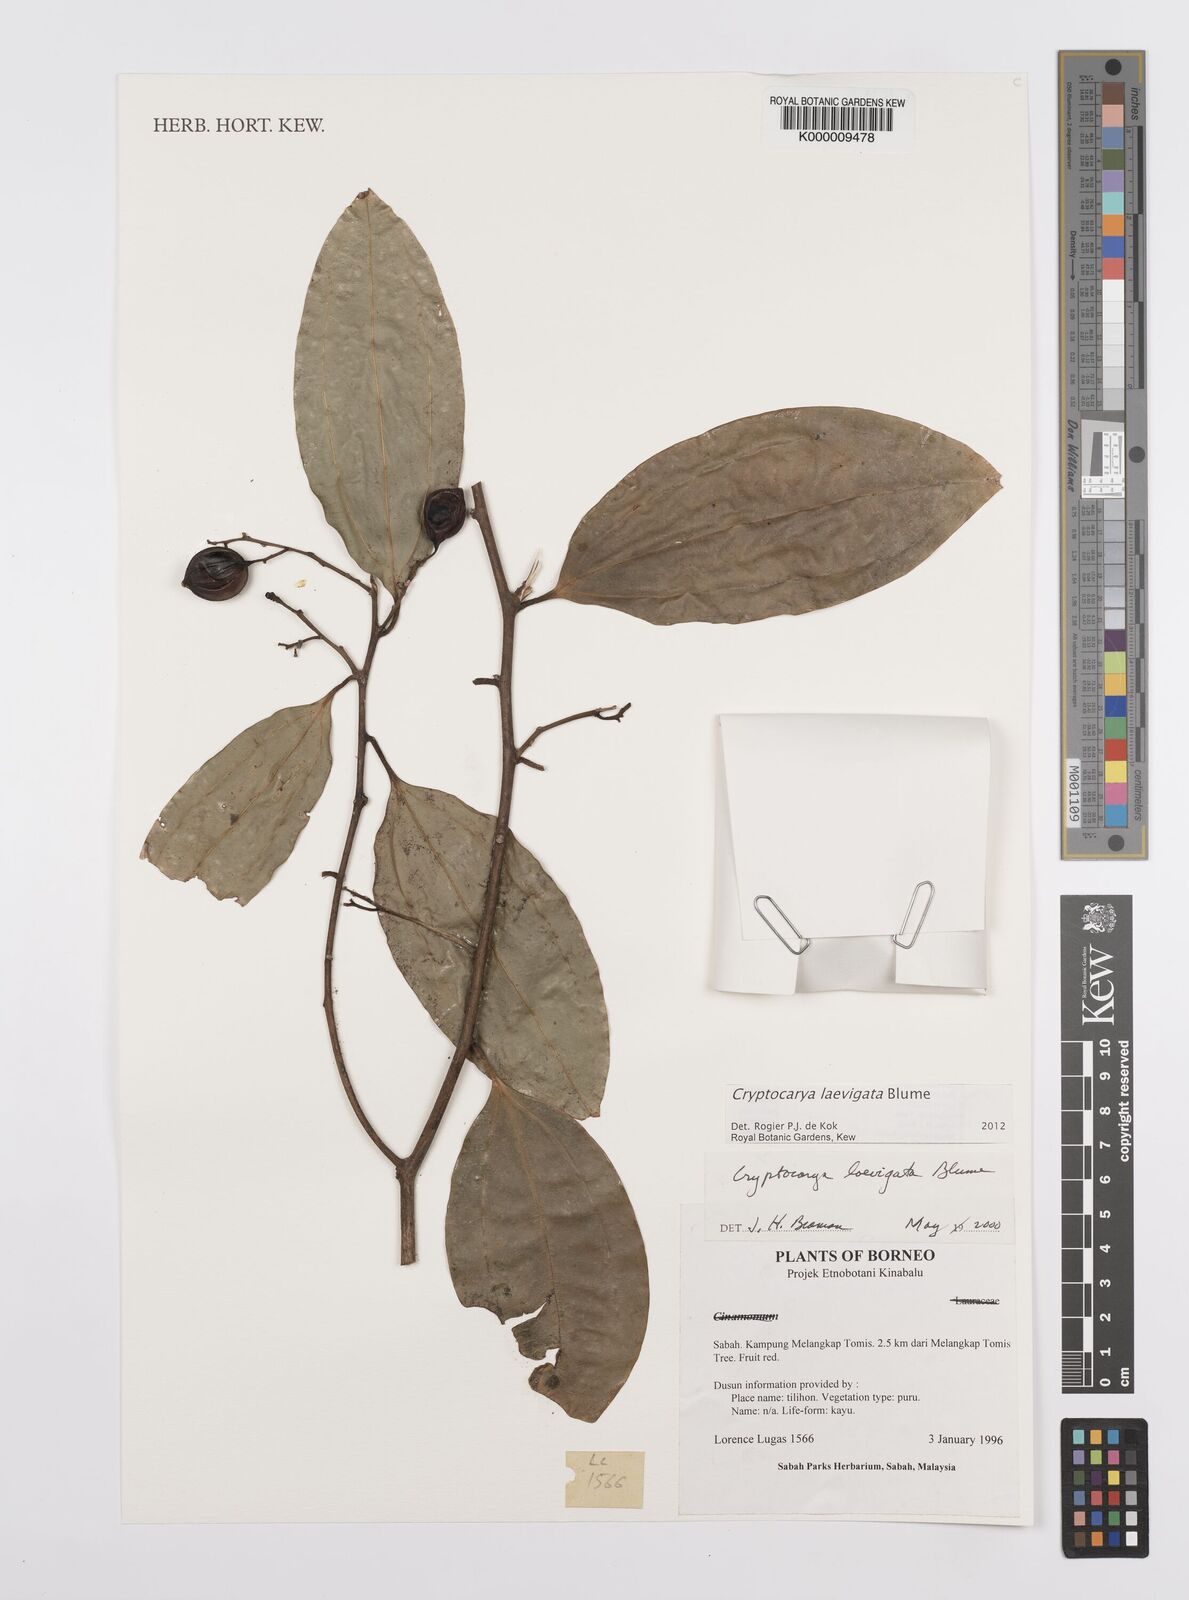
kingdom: Plantae
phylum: Tracheophyta
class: Magnoliopsida
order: Laurales
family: Lauraceae
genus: Cryptocarya
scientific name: Cryptocarya laevigata
